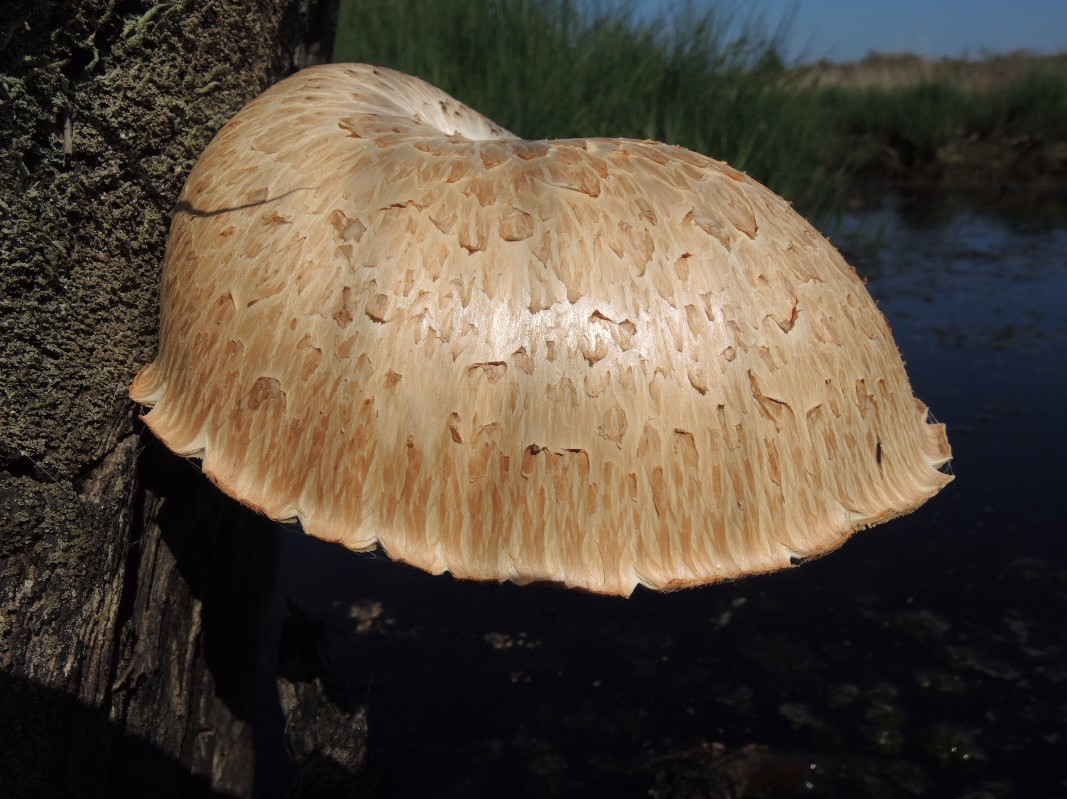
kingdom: Fungi
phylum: Basidiomycota
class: Agaricomycetes
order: Gloeophyllales
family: Gloeophyllaceae
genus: Neolentinus
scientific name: Neolentinus lepideus
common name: skællet sejhat
